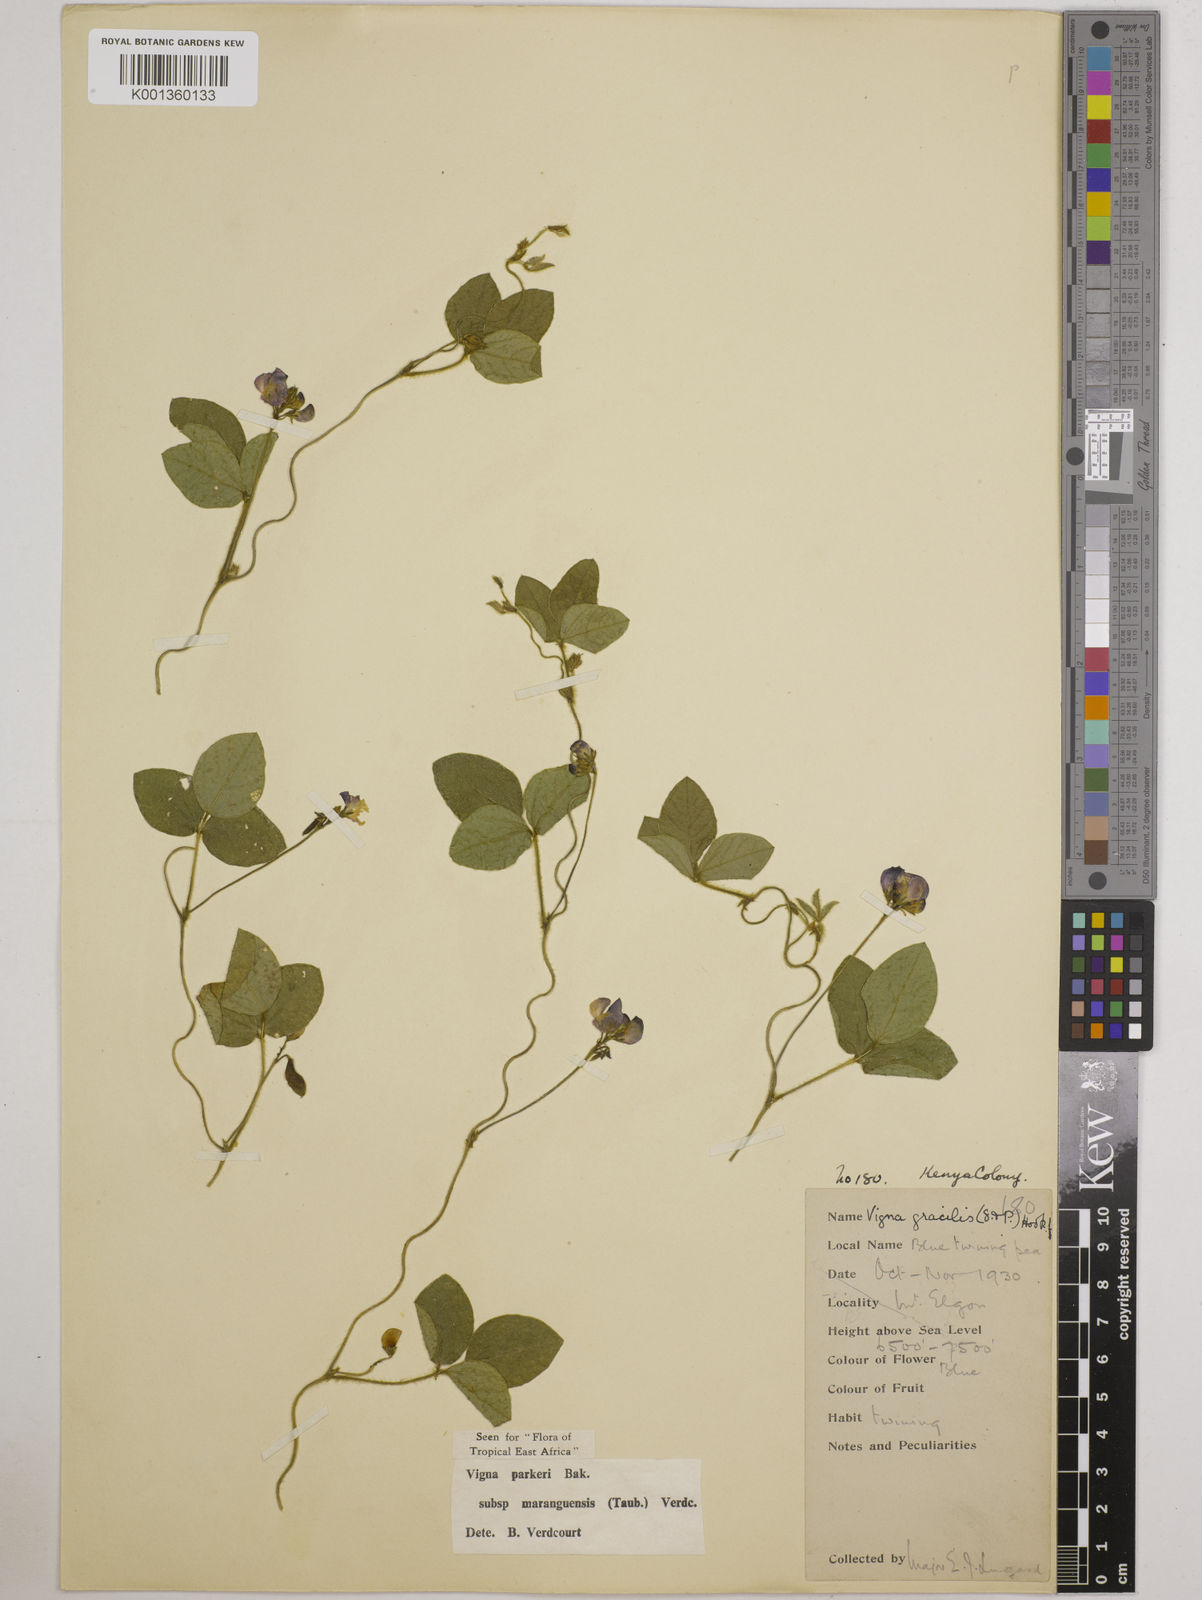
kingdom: Plantae
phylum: Tracheophyta
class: Magnoliopsida
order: Fabales
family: Fabaceae
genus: Vigna
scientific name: Vigna
